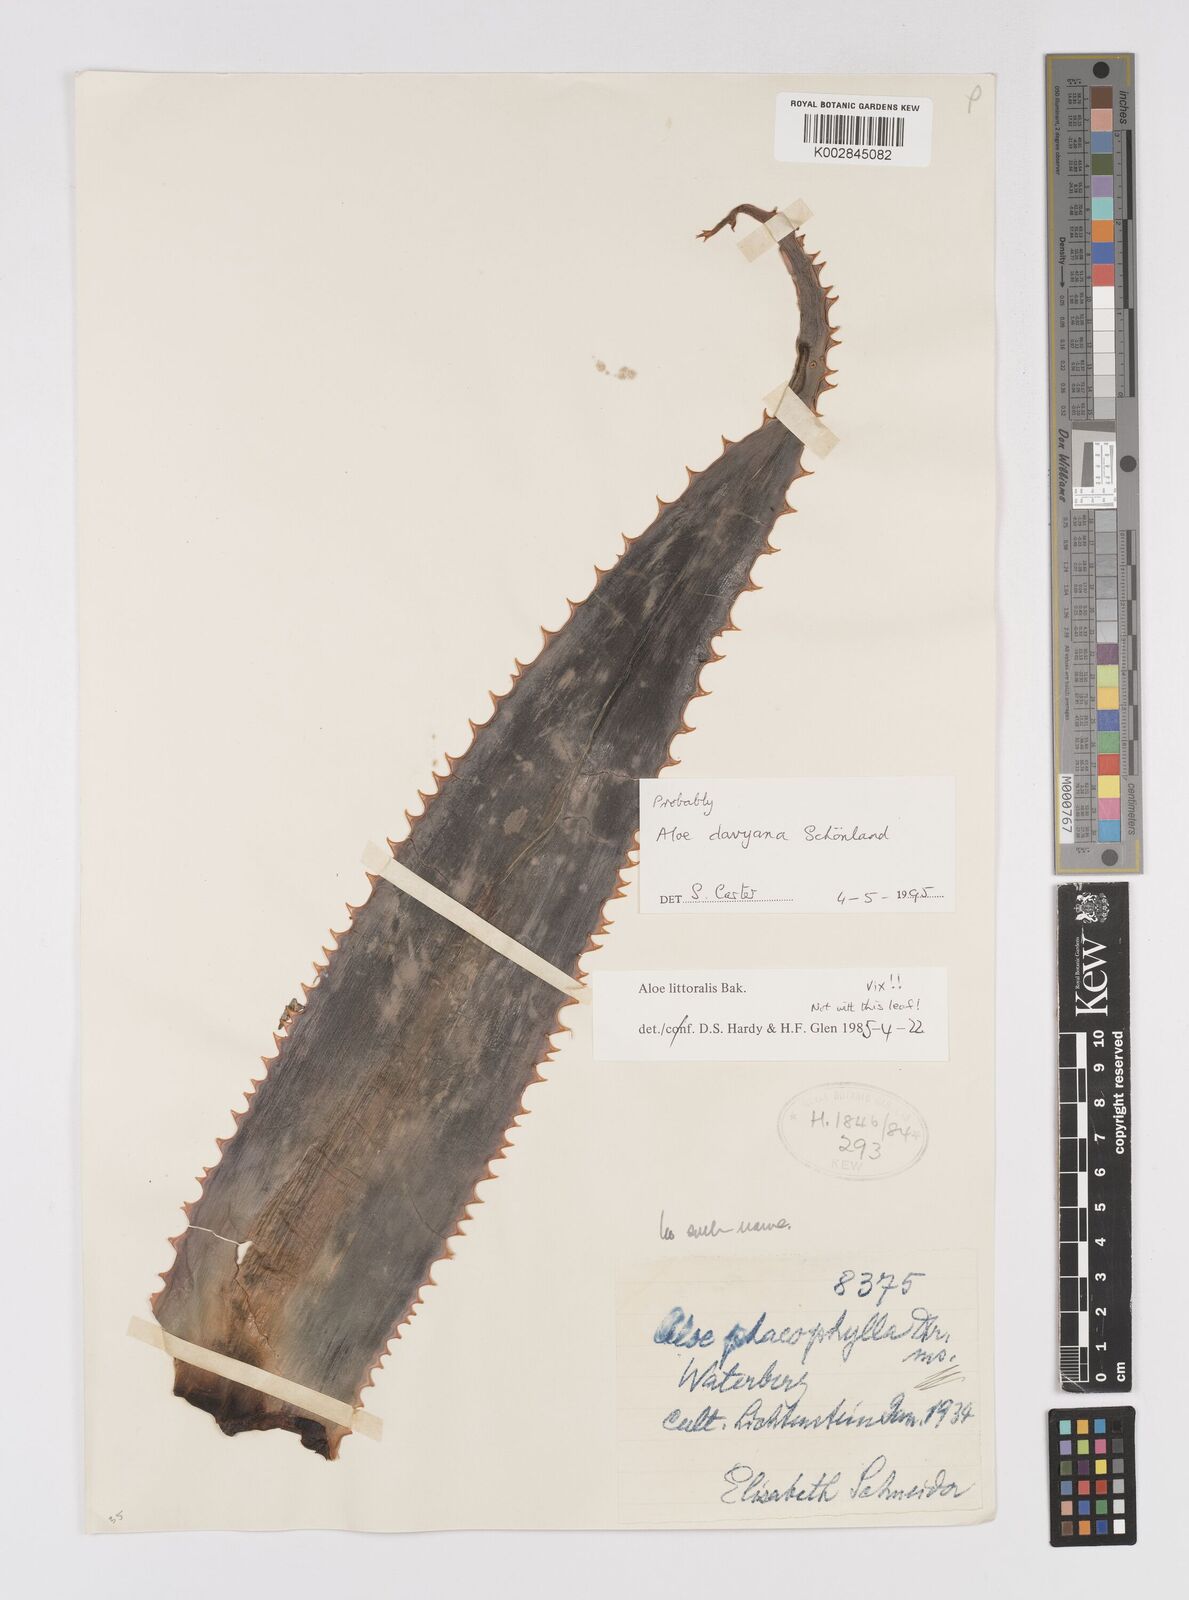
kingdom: Plantae
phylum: Tracheophyta
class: Liliopsida
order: Asparagales
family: Asphodelaceae
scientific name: Asphodelaceae
